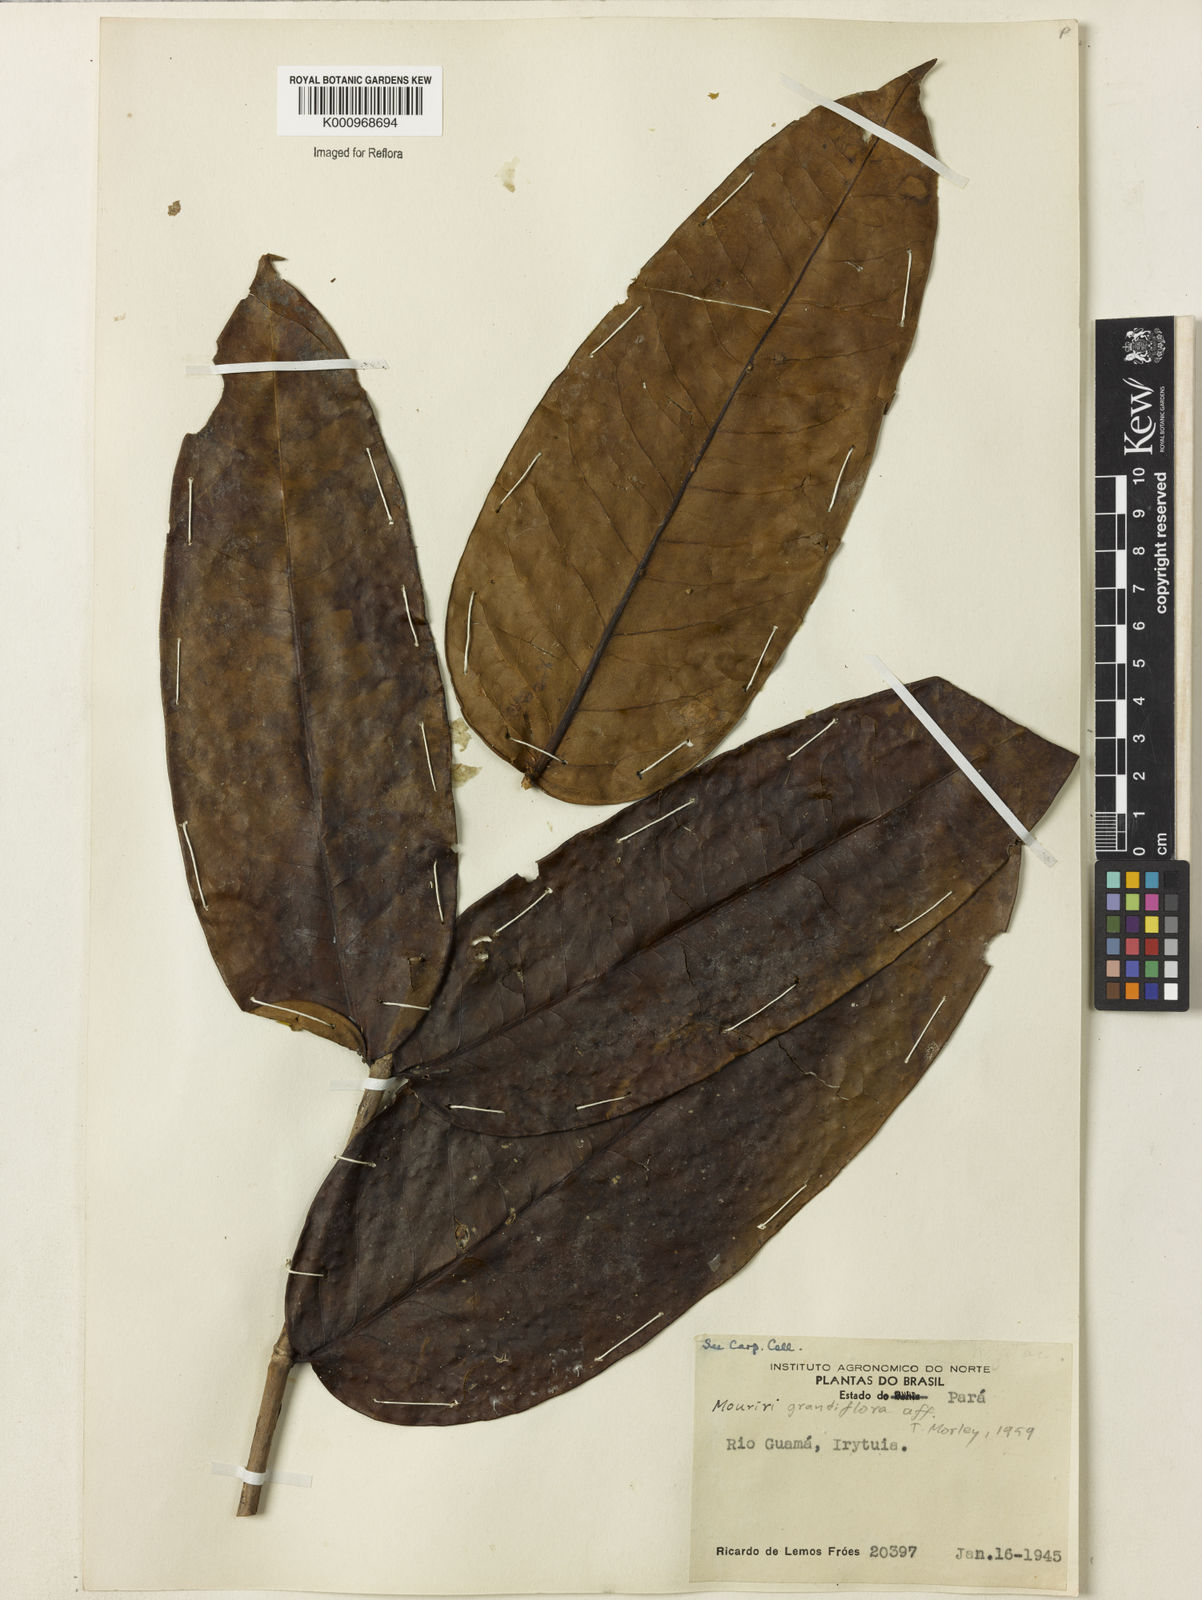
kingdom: Plantae
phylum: Tracheophyta
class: Magnoliopsida
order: Myrtales
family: Melastomataceae
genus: Mouriri
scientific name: Mouriri grandiflora
